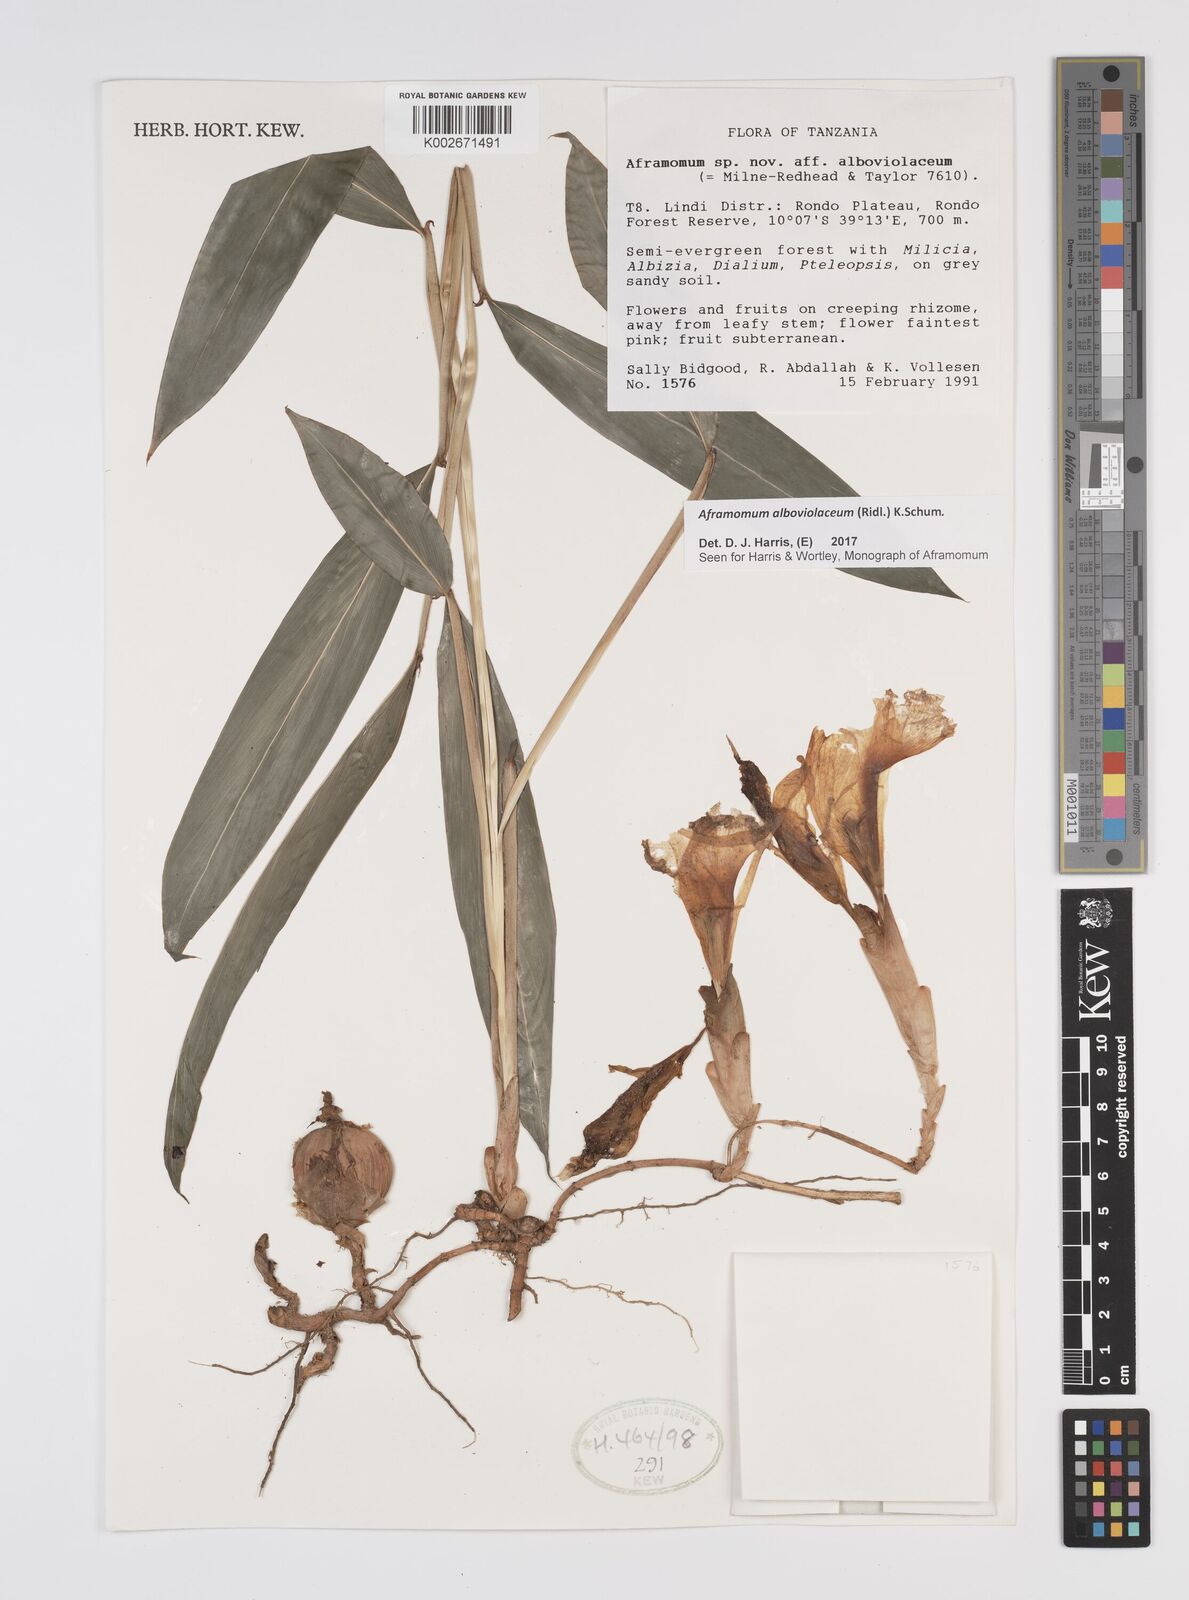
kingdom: Plantae
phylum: Tracheophyta
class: Liliopsida
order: Zingiberales
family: Zingiberaceae
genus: Aframomum
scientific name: Aframomum alboviolaceum
